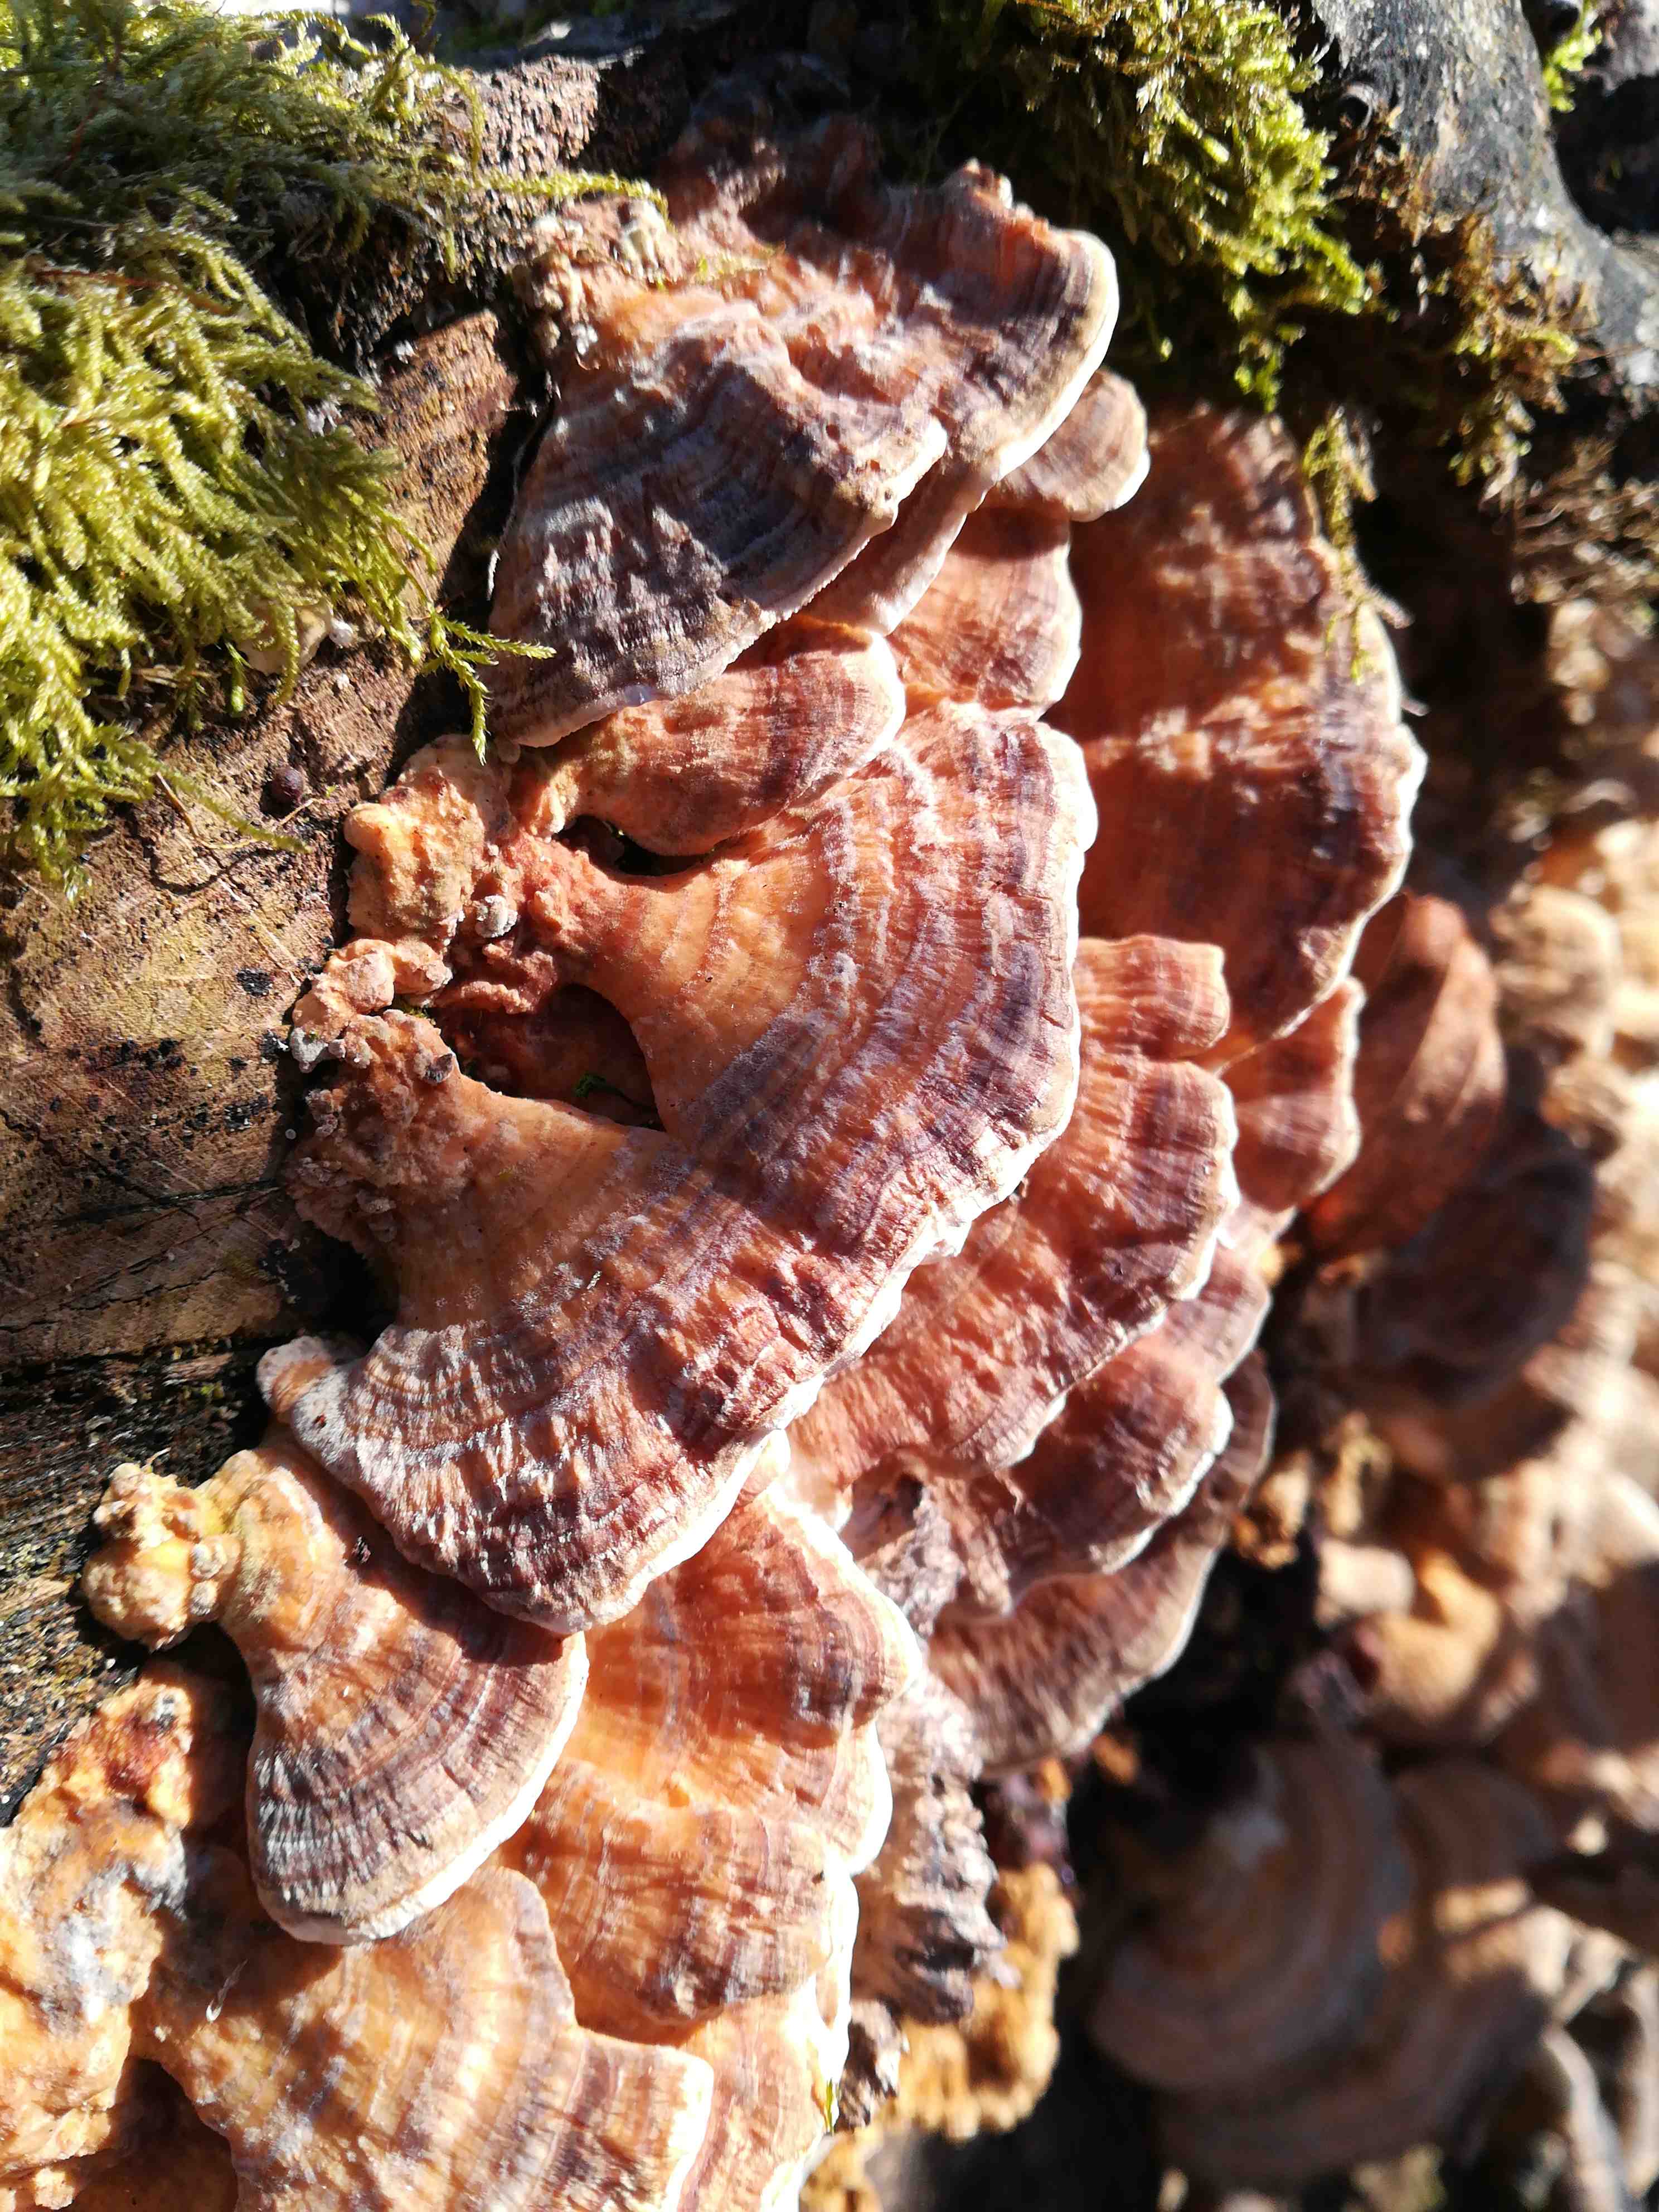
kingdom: Fungi
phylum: Basidiomycota
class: Agaricomycetes
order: Polyporales
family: Polyporaceae
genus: Trametes
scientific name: Trametes versicolor
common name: broget læderporesvamp
